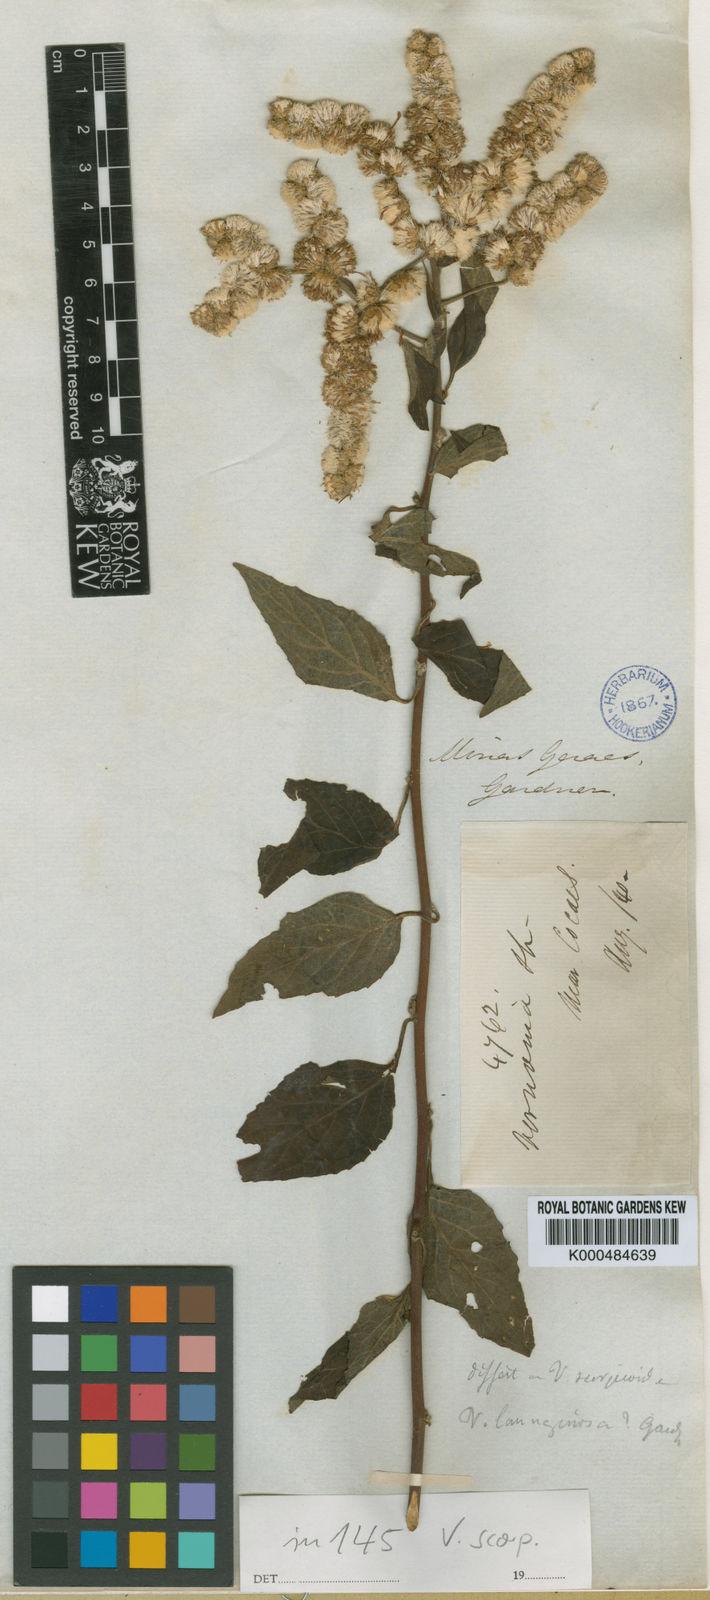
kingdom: Plantae
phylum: Tracheophyta
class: Magnoliopsida
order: Asterales
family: Asteraceae
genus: Lepidaploa
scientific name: Lepidaploa sororia
